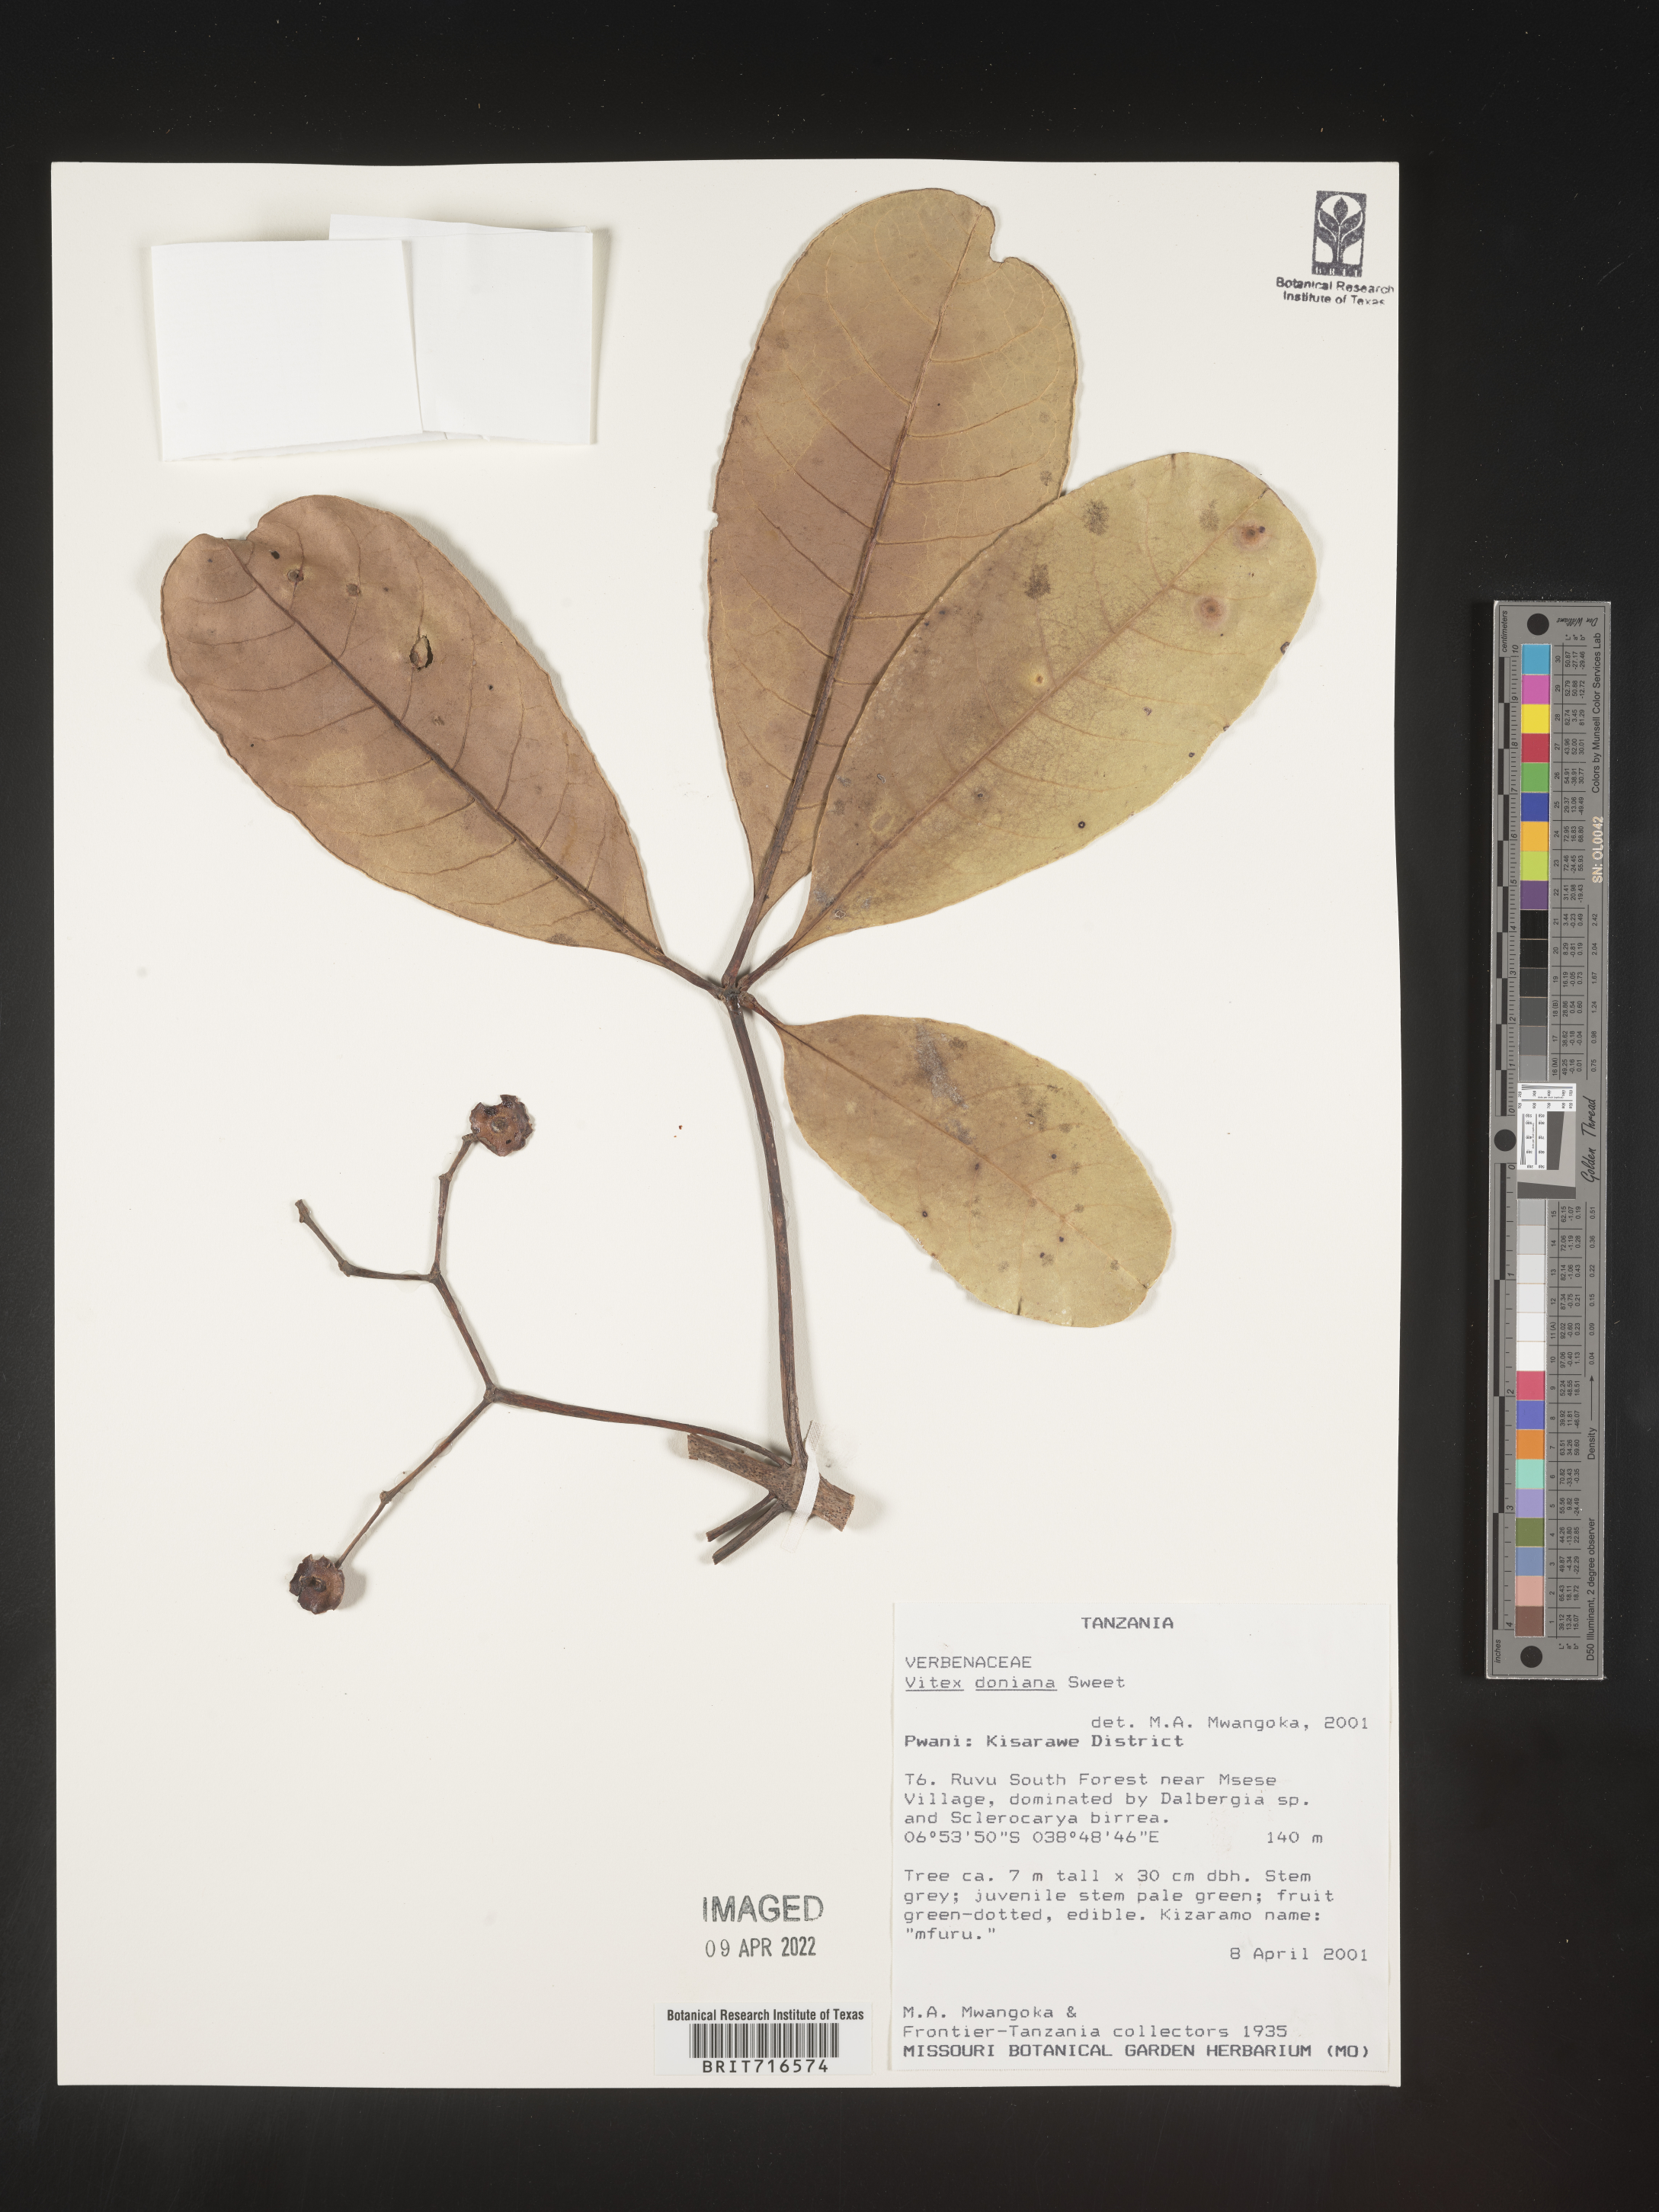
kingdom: Plantae
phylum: Tracheophyta
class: Magnoliopsida
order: Lamiales
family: Lamiaceae
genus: Vitex
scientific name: Vitex
